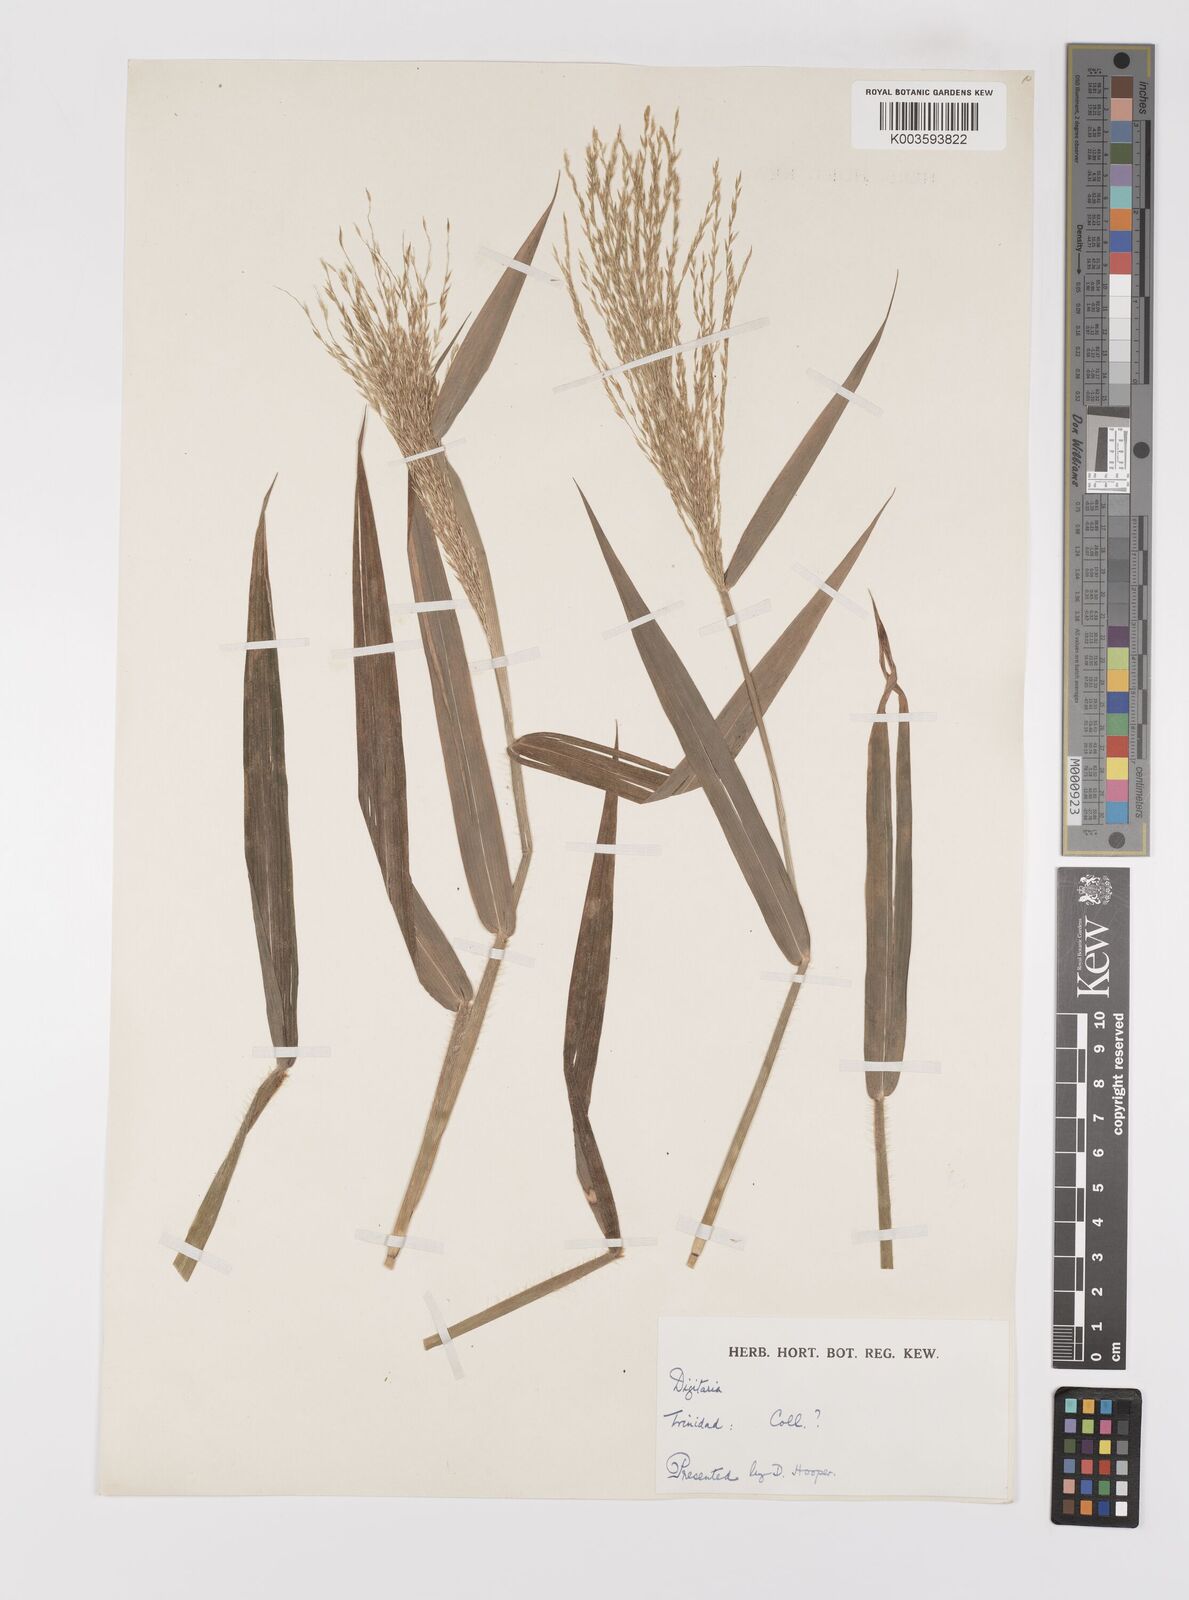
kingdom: Plantae
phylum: Tracheophyta
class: Liliopsida
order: Poales
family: Poaceae
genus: Digitaria
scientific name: Digitaria laxa
